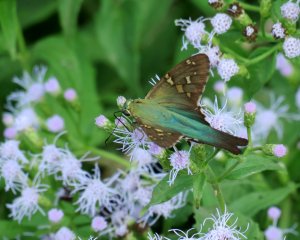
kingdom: Animalia
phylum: Arthropoda
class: Insecta
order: Lepidoptera
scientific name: Lepidoptera
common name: Butterflies
